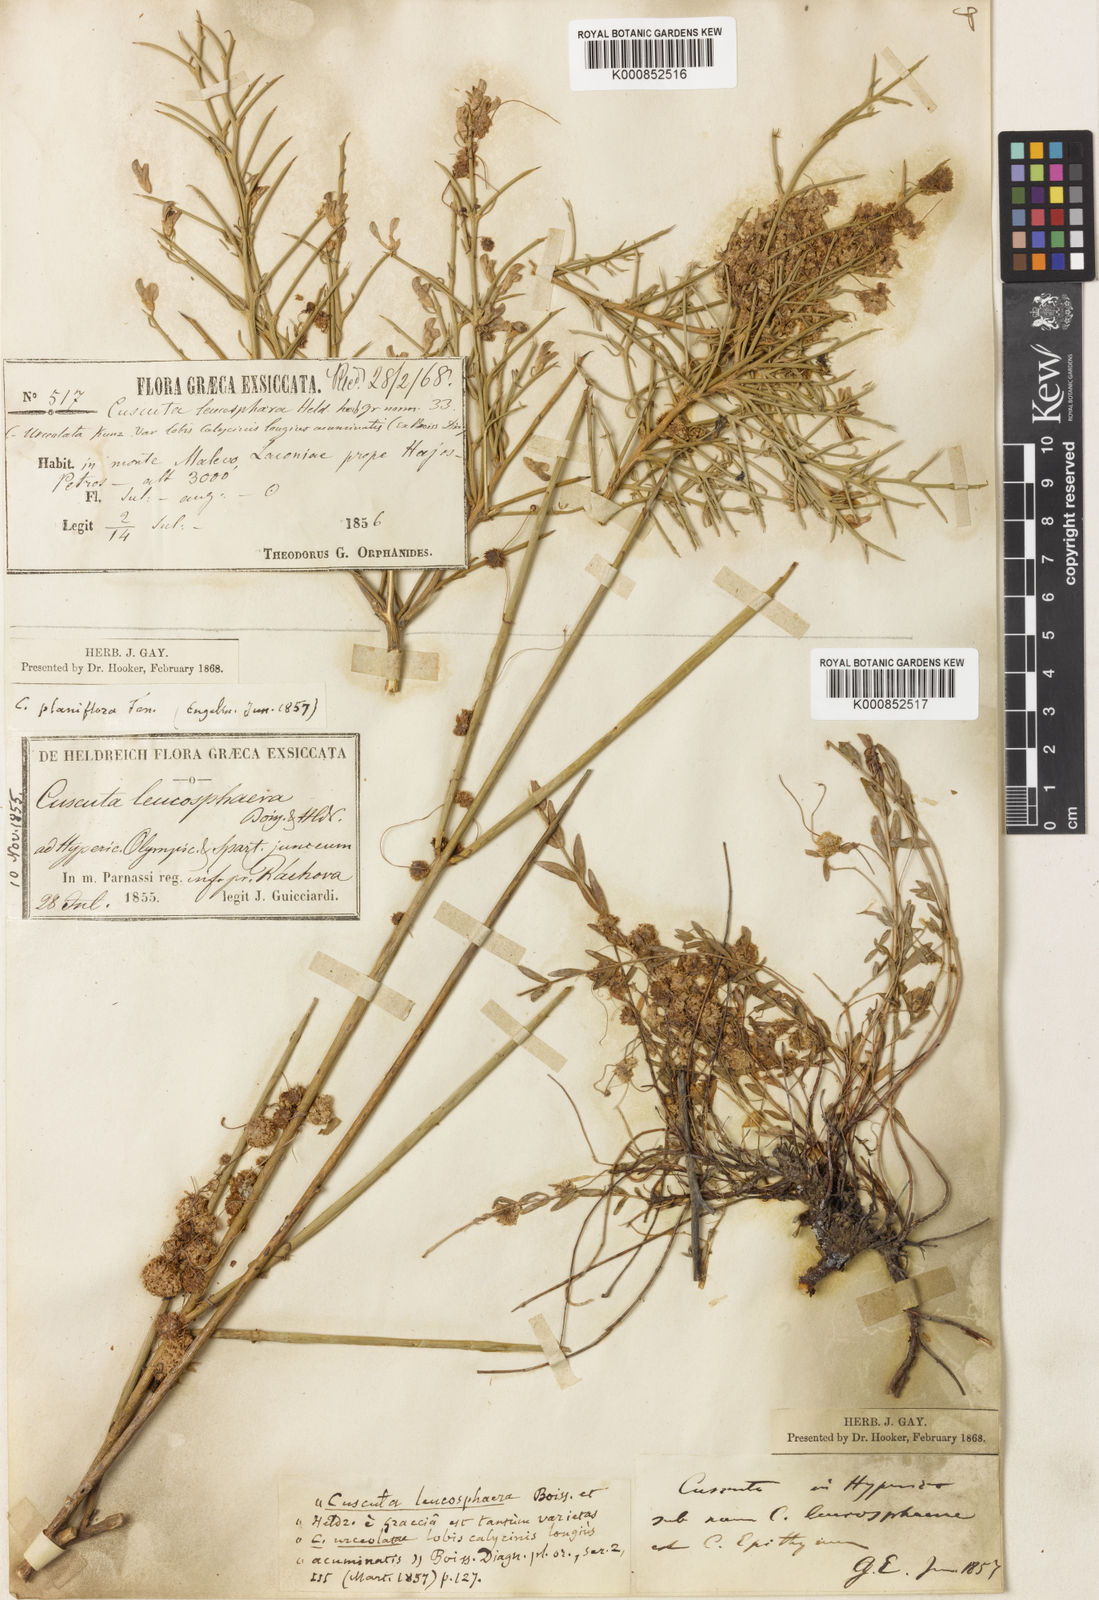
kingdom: Plantae
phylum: Tracheophyta
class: Magnoliopsida
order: Solanales
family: Convolvulaceae
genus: Cuscuta
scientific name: Cuscuta approximata
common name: Alfalfa dodder
